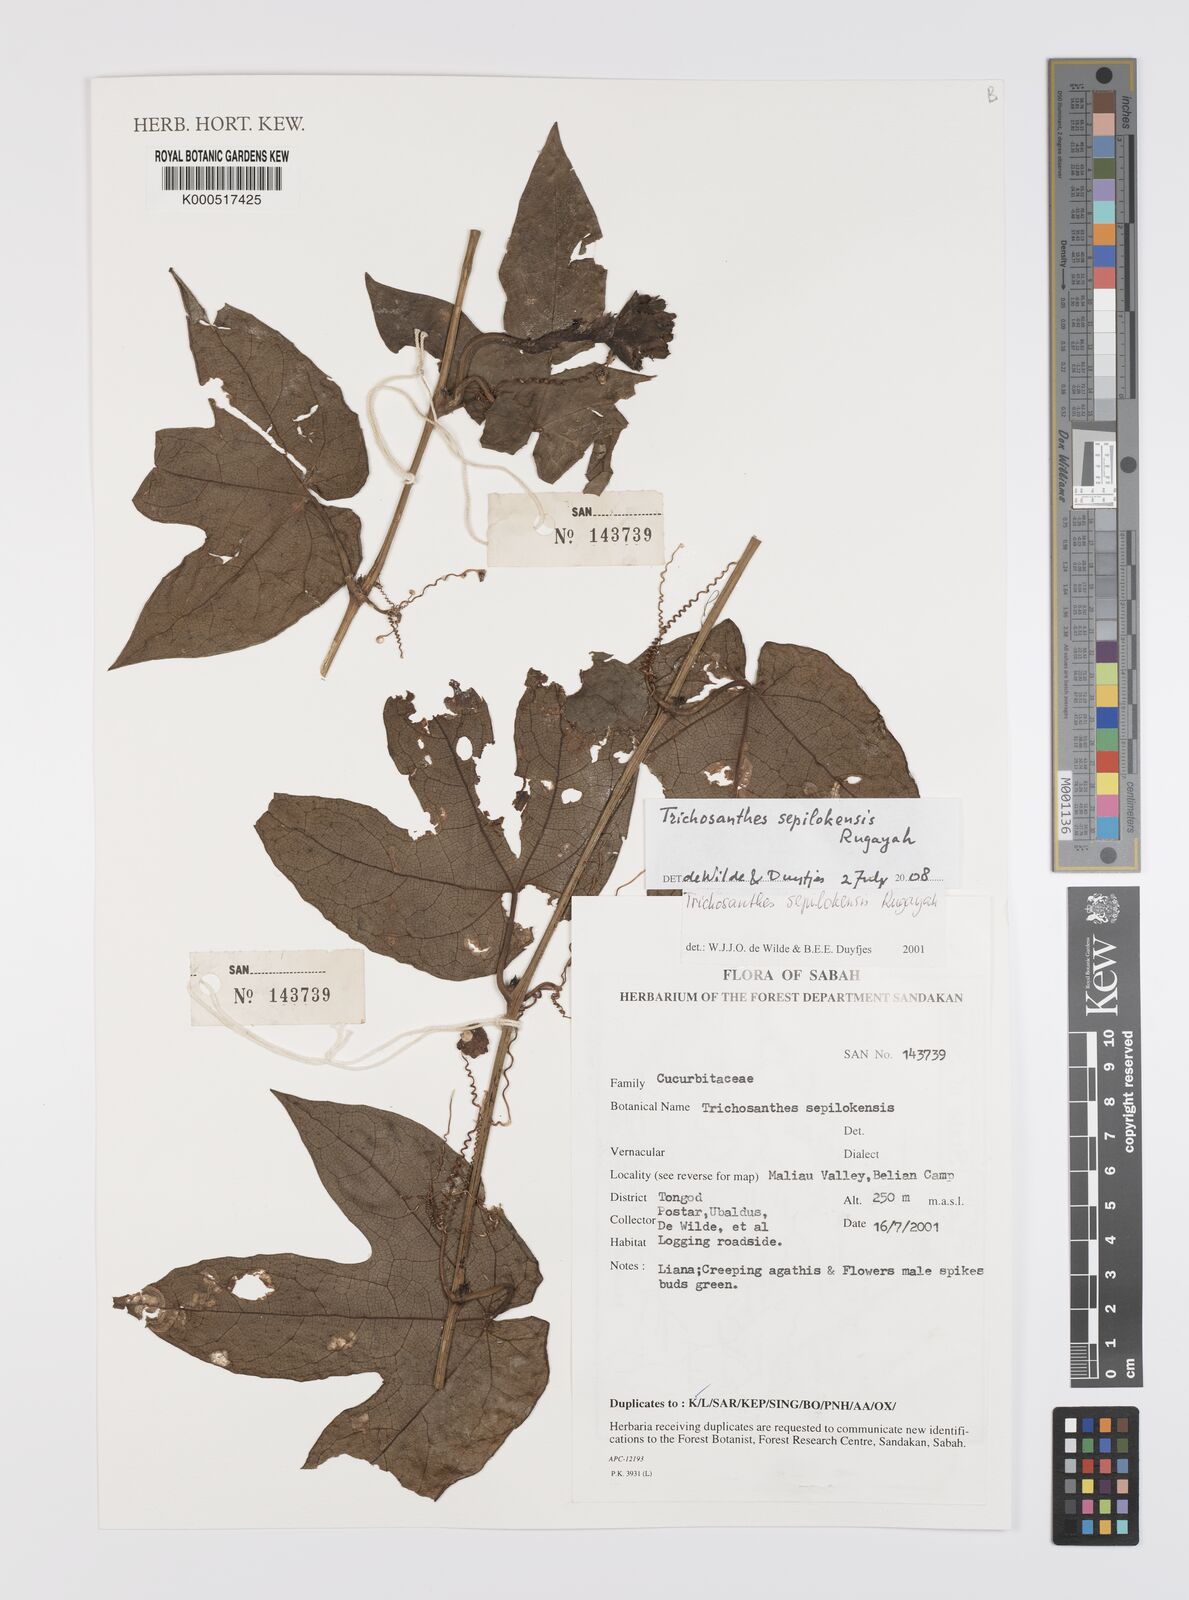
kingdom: Plantae
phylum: Tracheophyta
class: Magnoliopsida
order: Cucurbitales
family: Cucurbitaceae
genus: Trichosanthes
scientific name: Trichosanthes sepilokensis
